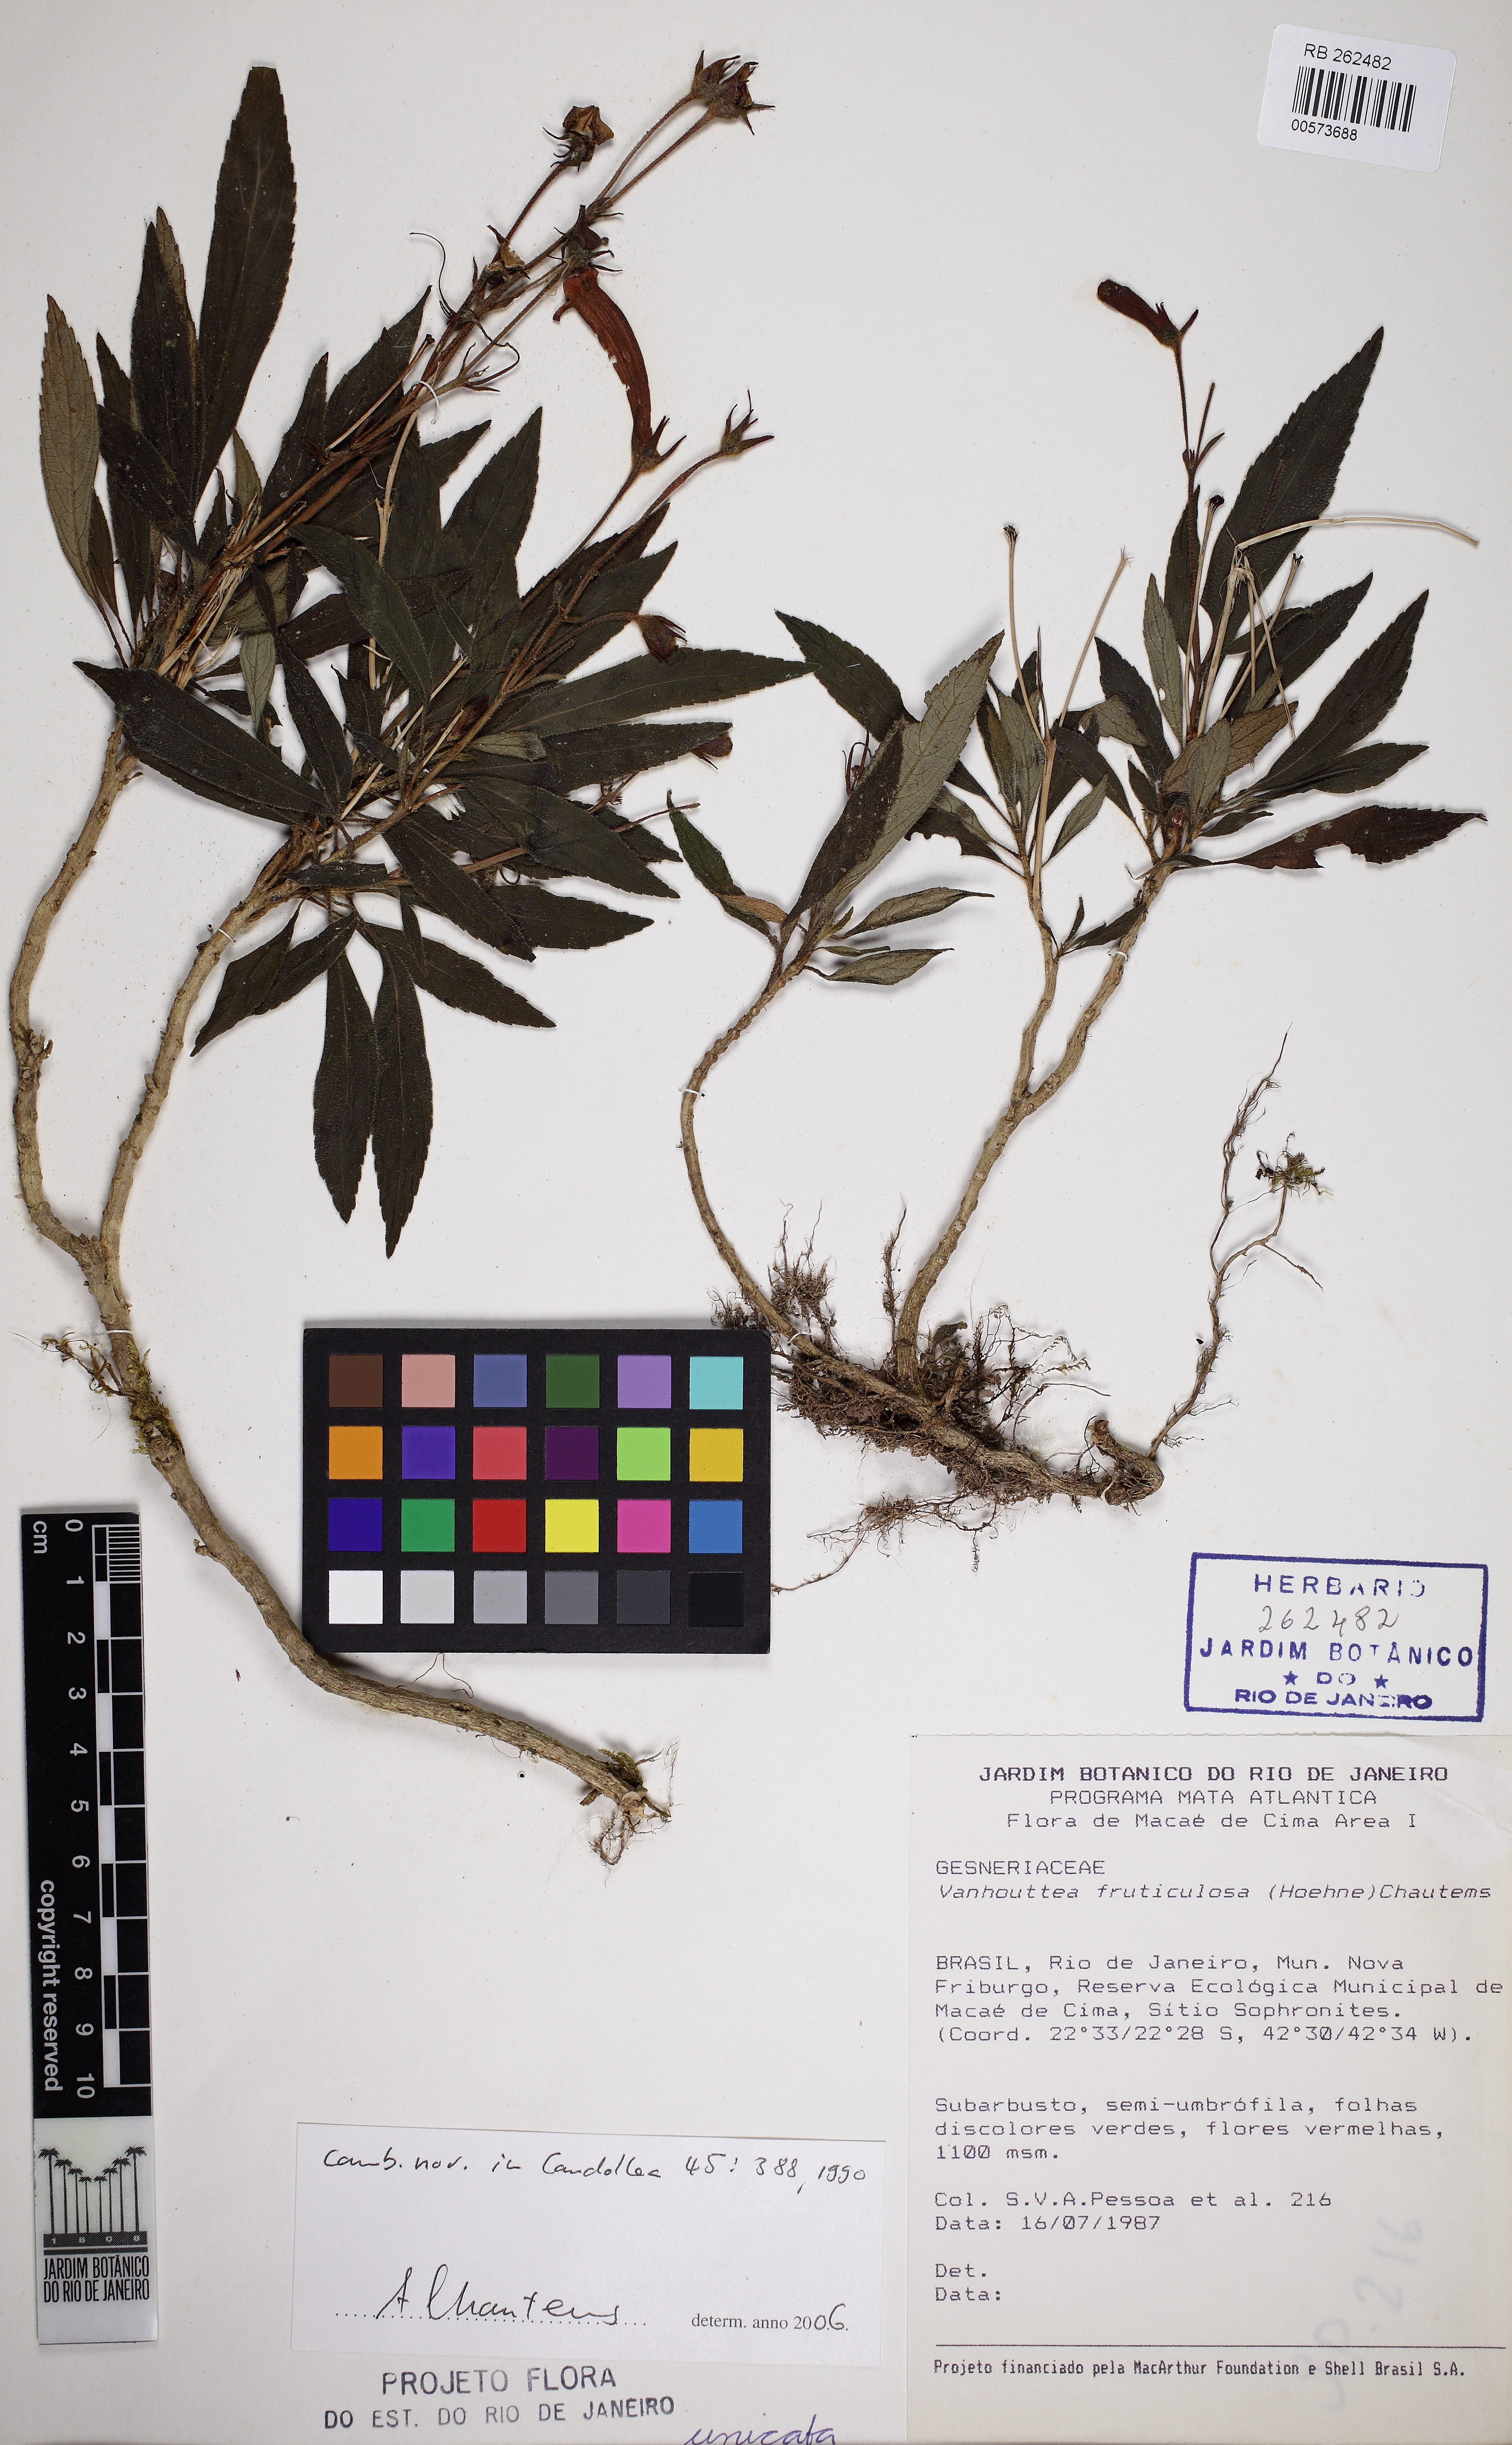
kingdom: Plantae
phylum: Tracheophyta
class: Magnoliopsida
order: Lamiales
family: Gesneriaceae
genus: Vanhouttea
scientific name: Vanhouttea fruticulosa
